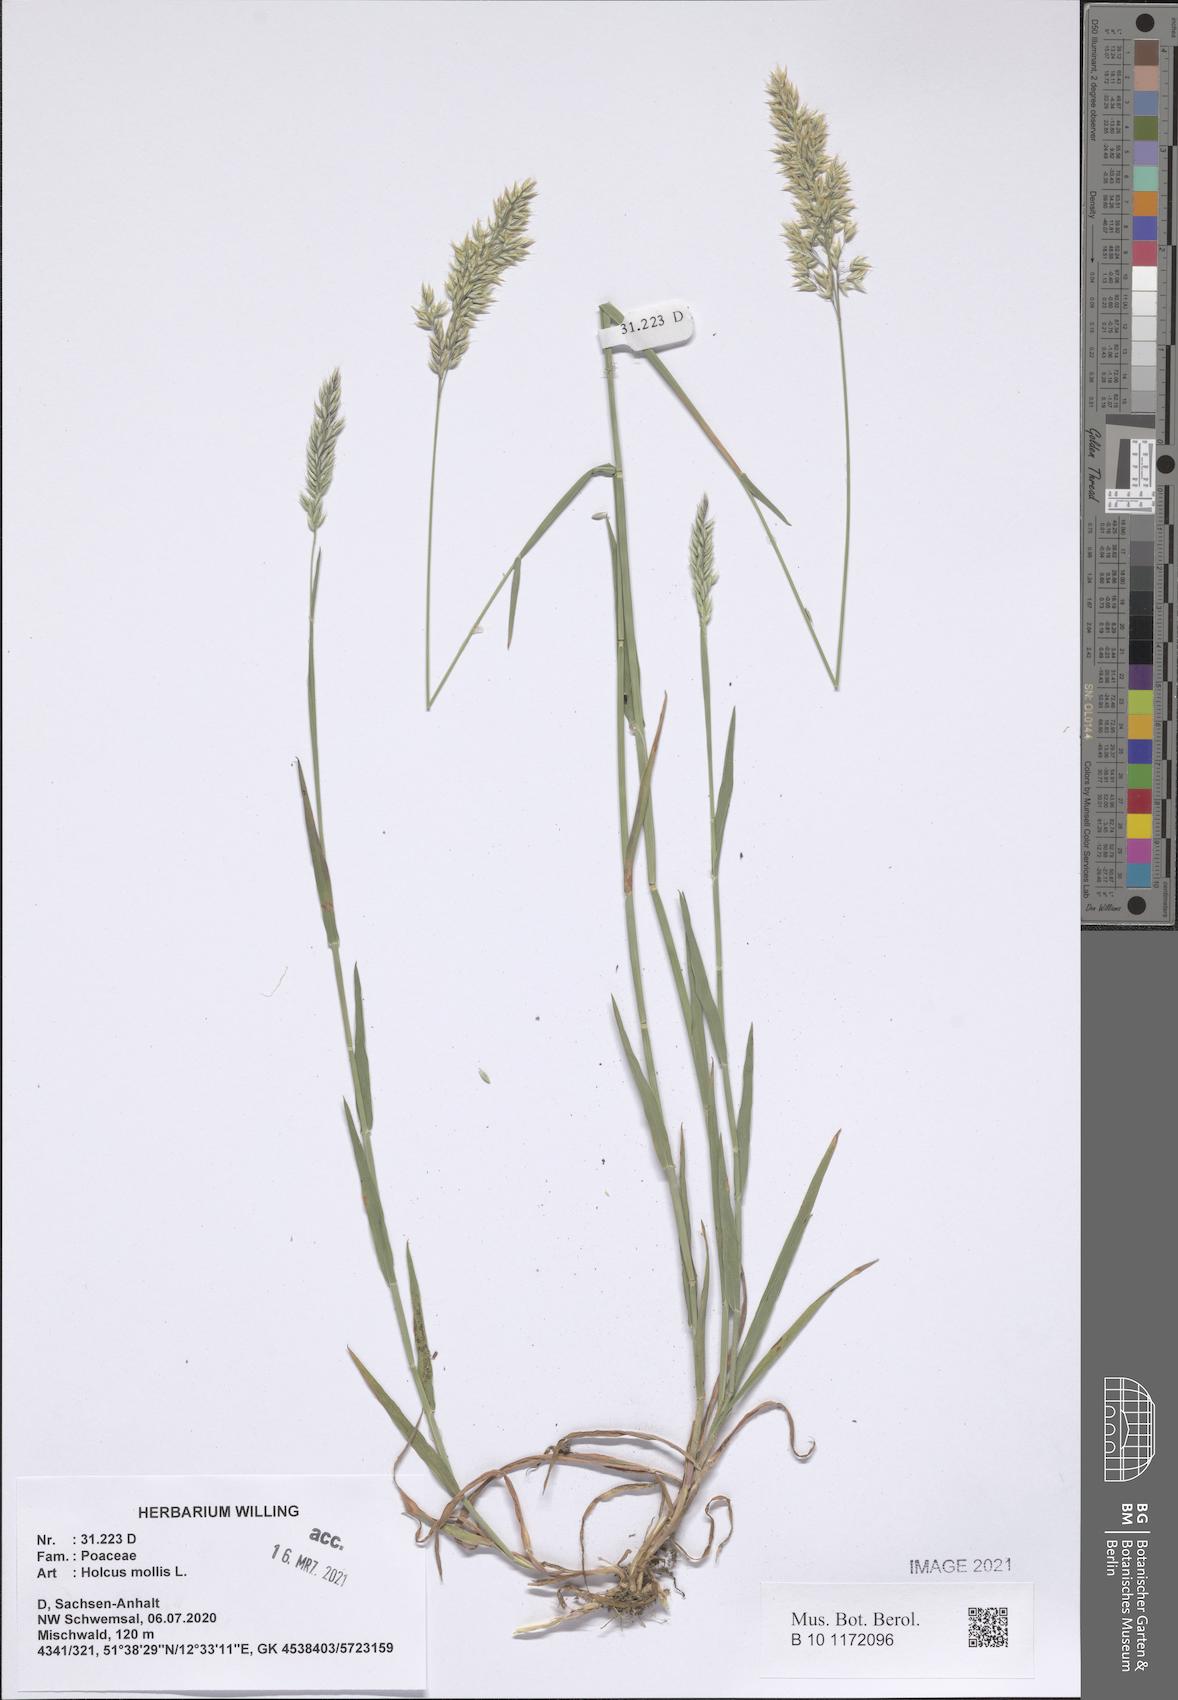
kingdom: Plantae
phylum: Tracheophyta
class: Liliopsida
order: Poales
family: Poaceae
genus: Holcus
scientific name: Holcus mollis
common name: Creeping velvetgrass
